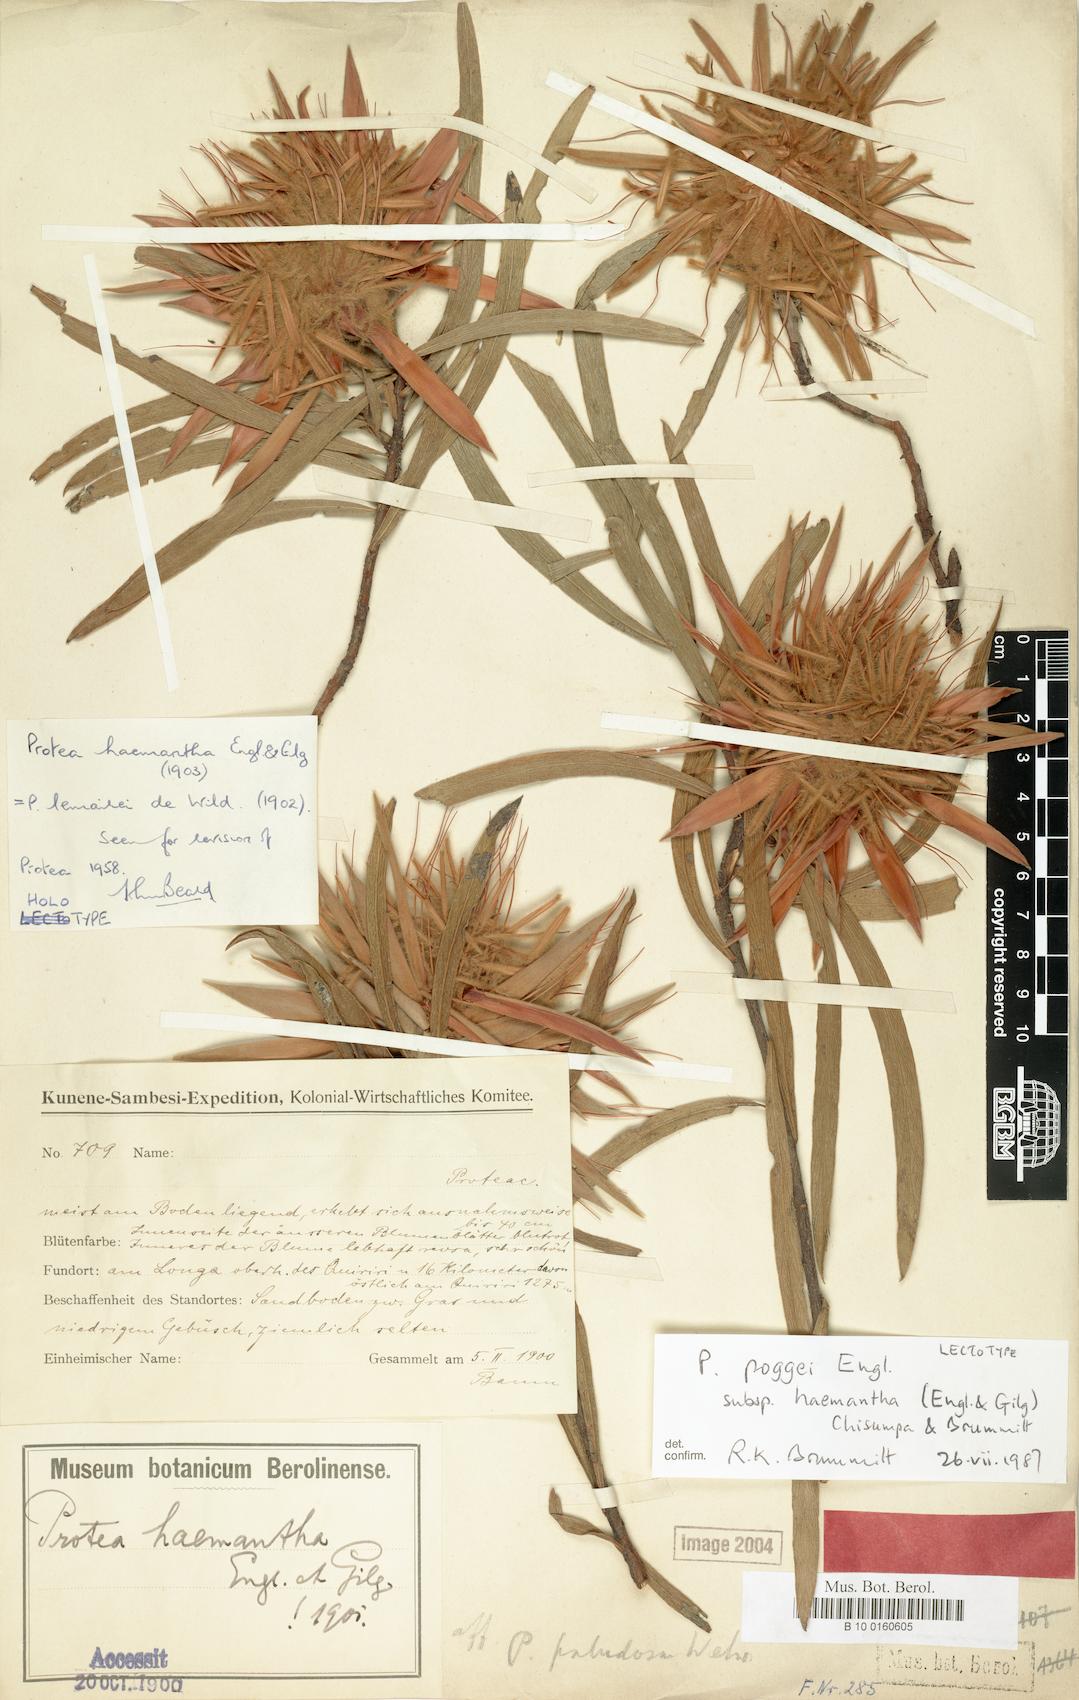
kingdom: Plantae
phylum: Tracheophyta
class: Magnoliopsida
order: Proteales
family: Proteaceae
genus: Protea
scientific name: Protea poggei
